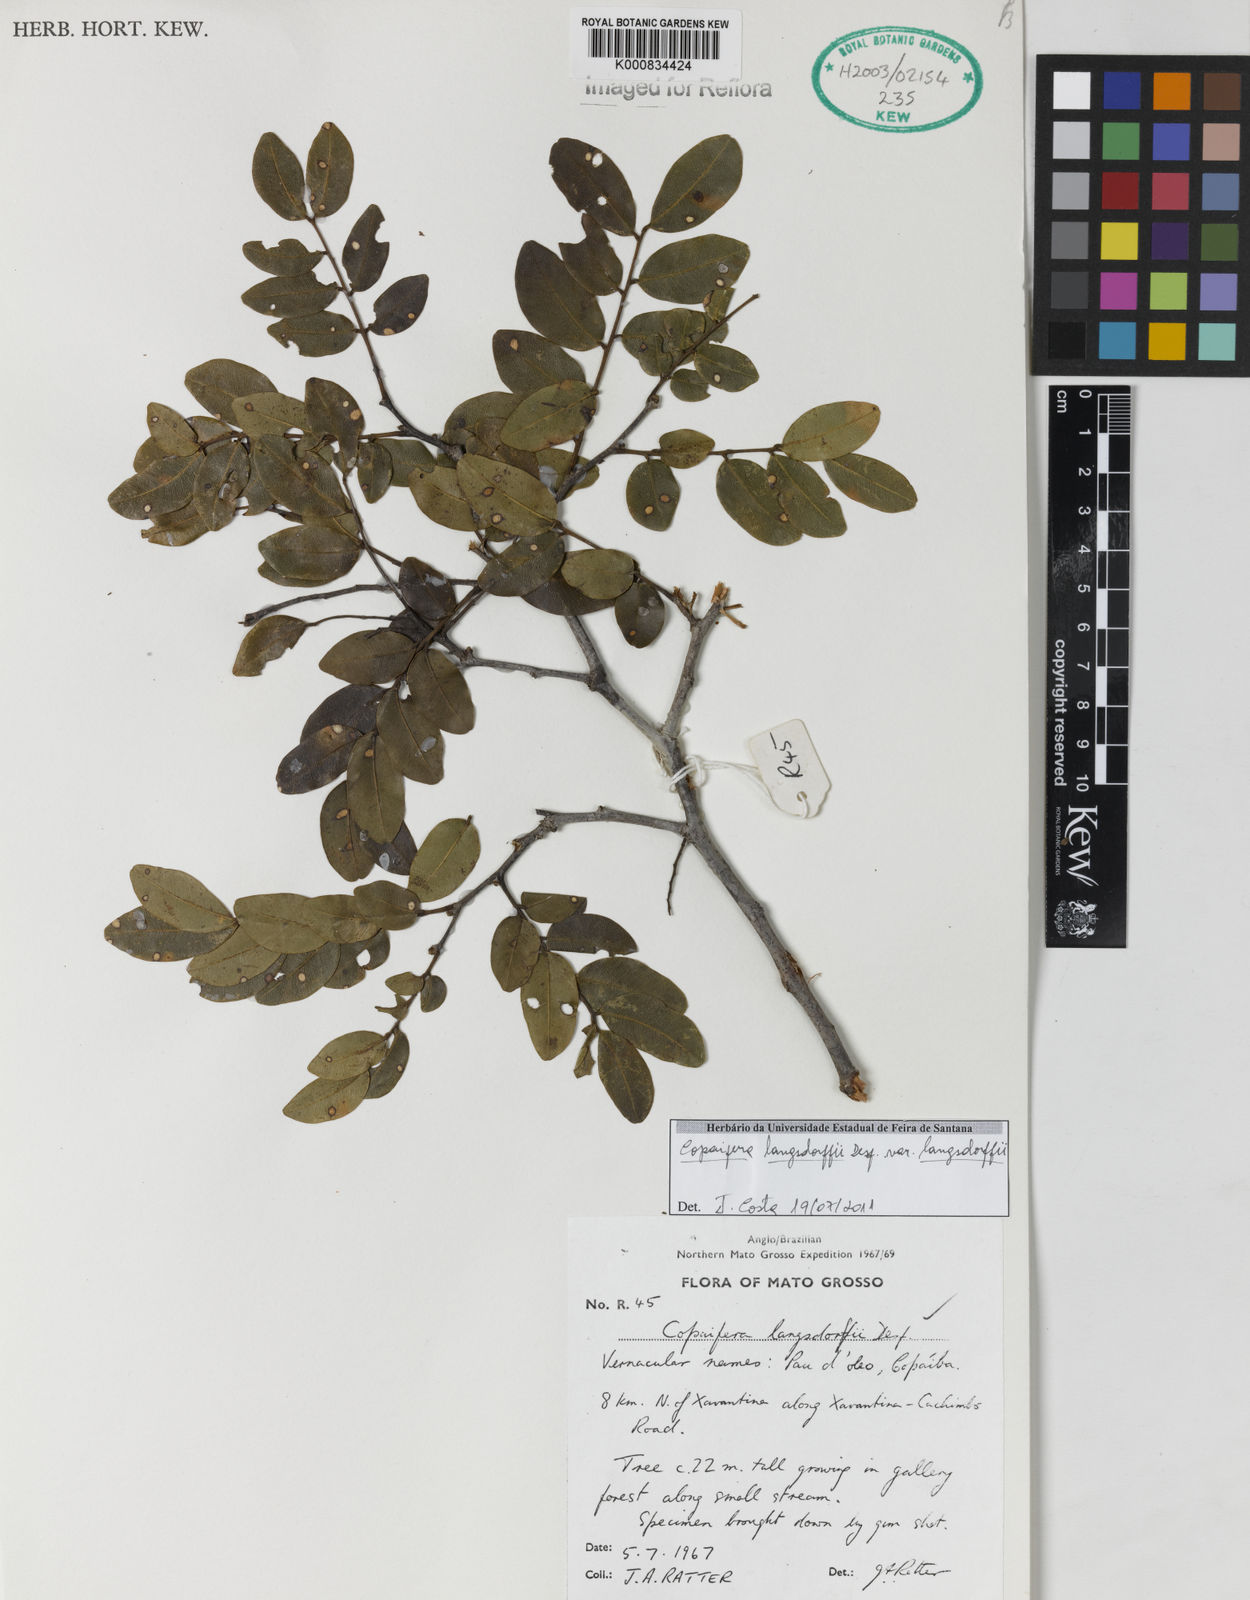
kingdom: Plantae
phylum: Tracheophyta
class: Magnoliopsida
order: Fabales
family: Fabaceae
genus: Copaifera
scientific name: Copaifera langsdorffii
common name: Brazilian diesel tree
